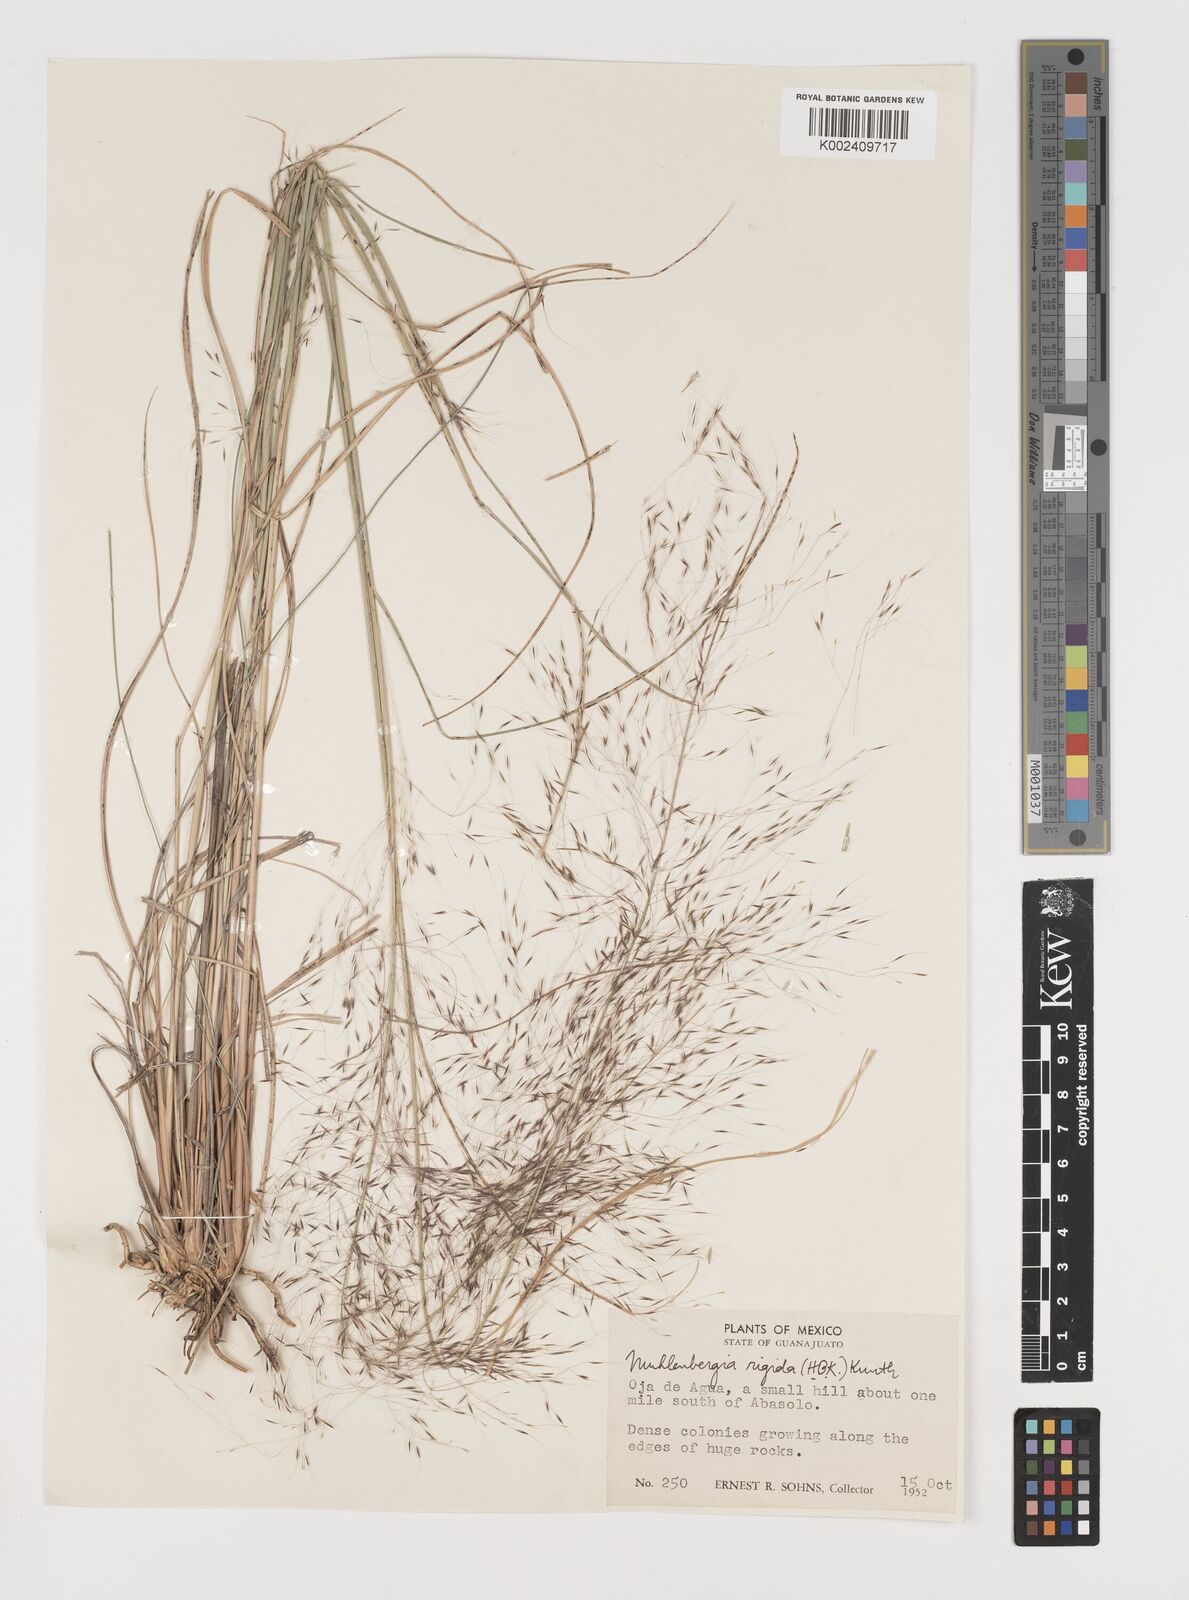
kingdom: Plantae
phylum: Tracheophyta
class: Liliopsida
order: Poales
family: Poaceae
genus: Muhlenbergia
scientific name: Muhlenbergia rigida
